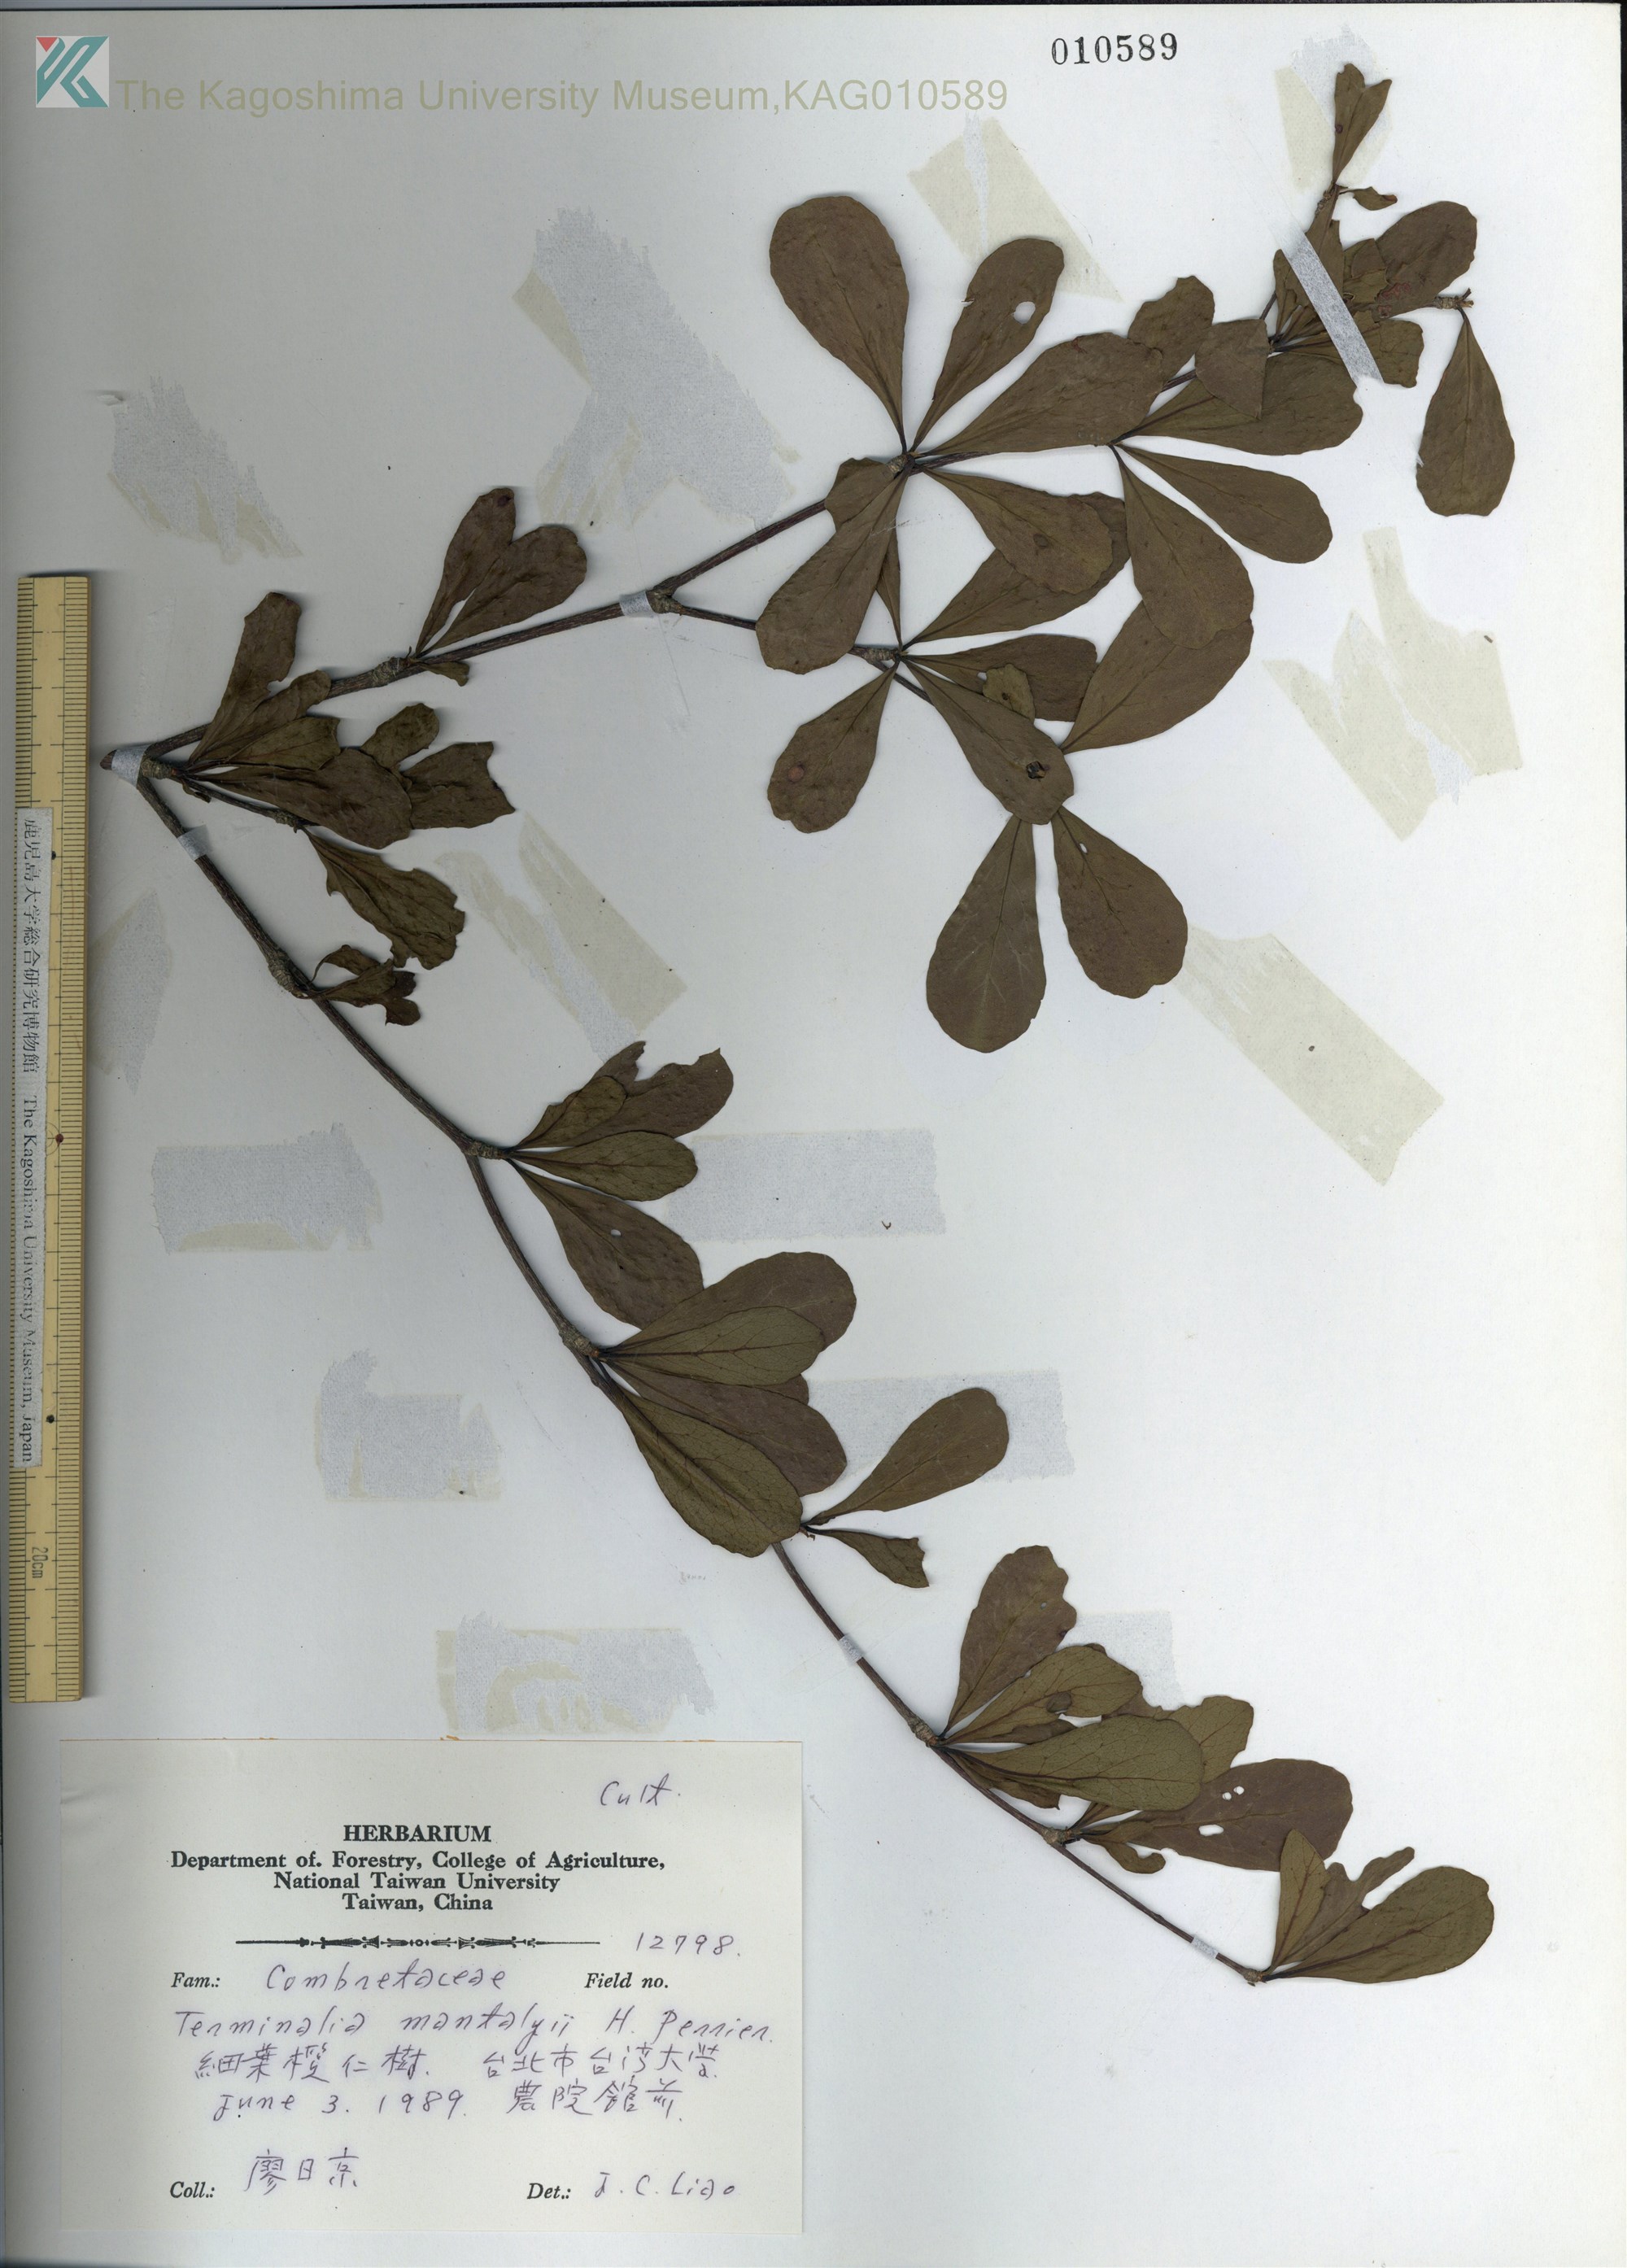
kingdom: Plantae
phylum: Tracheophyta
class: Magnoliopsida
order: Myrtales
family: Combretaceae
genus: Terminalia
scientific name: Terminalia neotaliala
